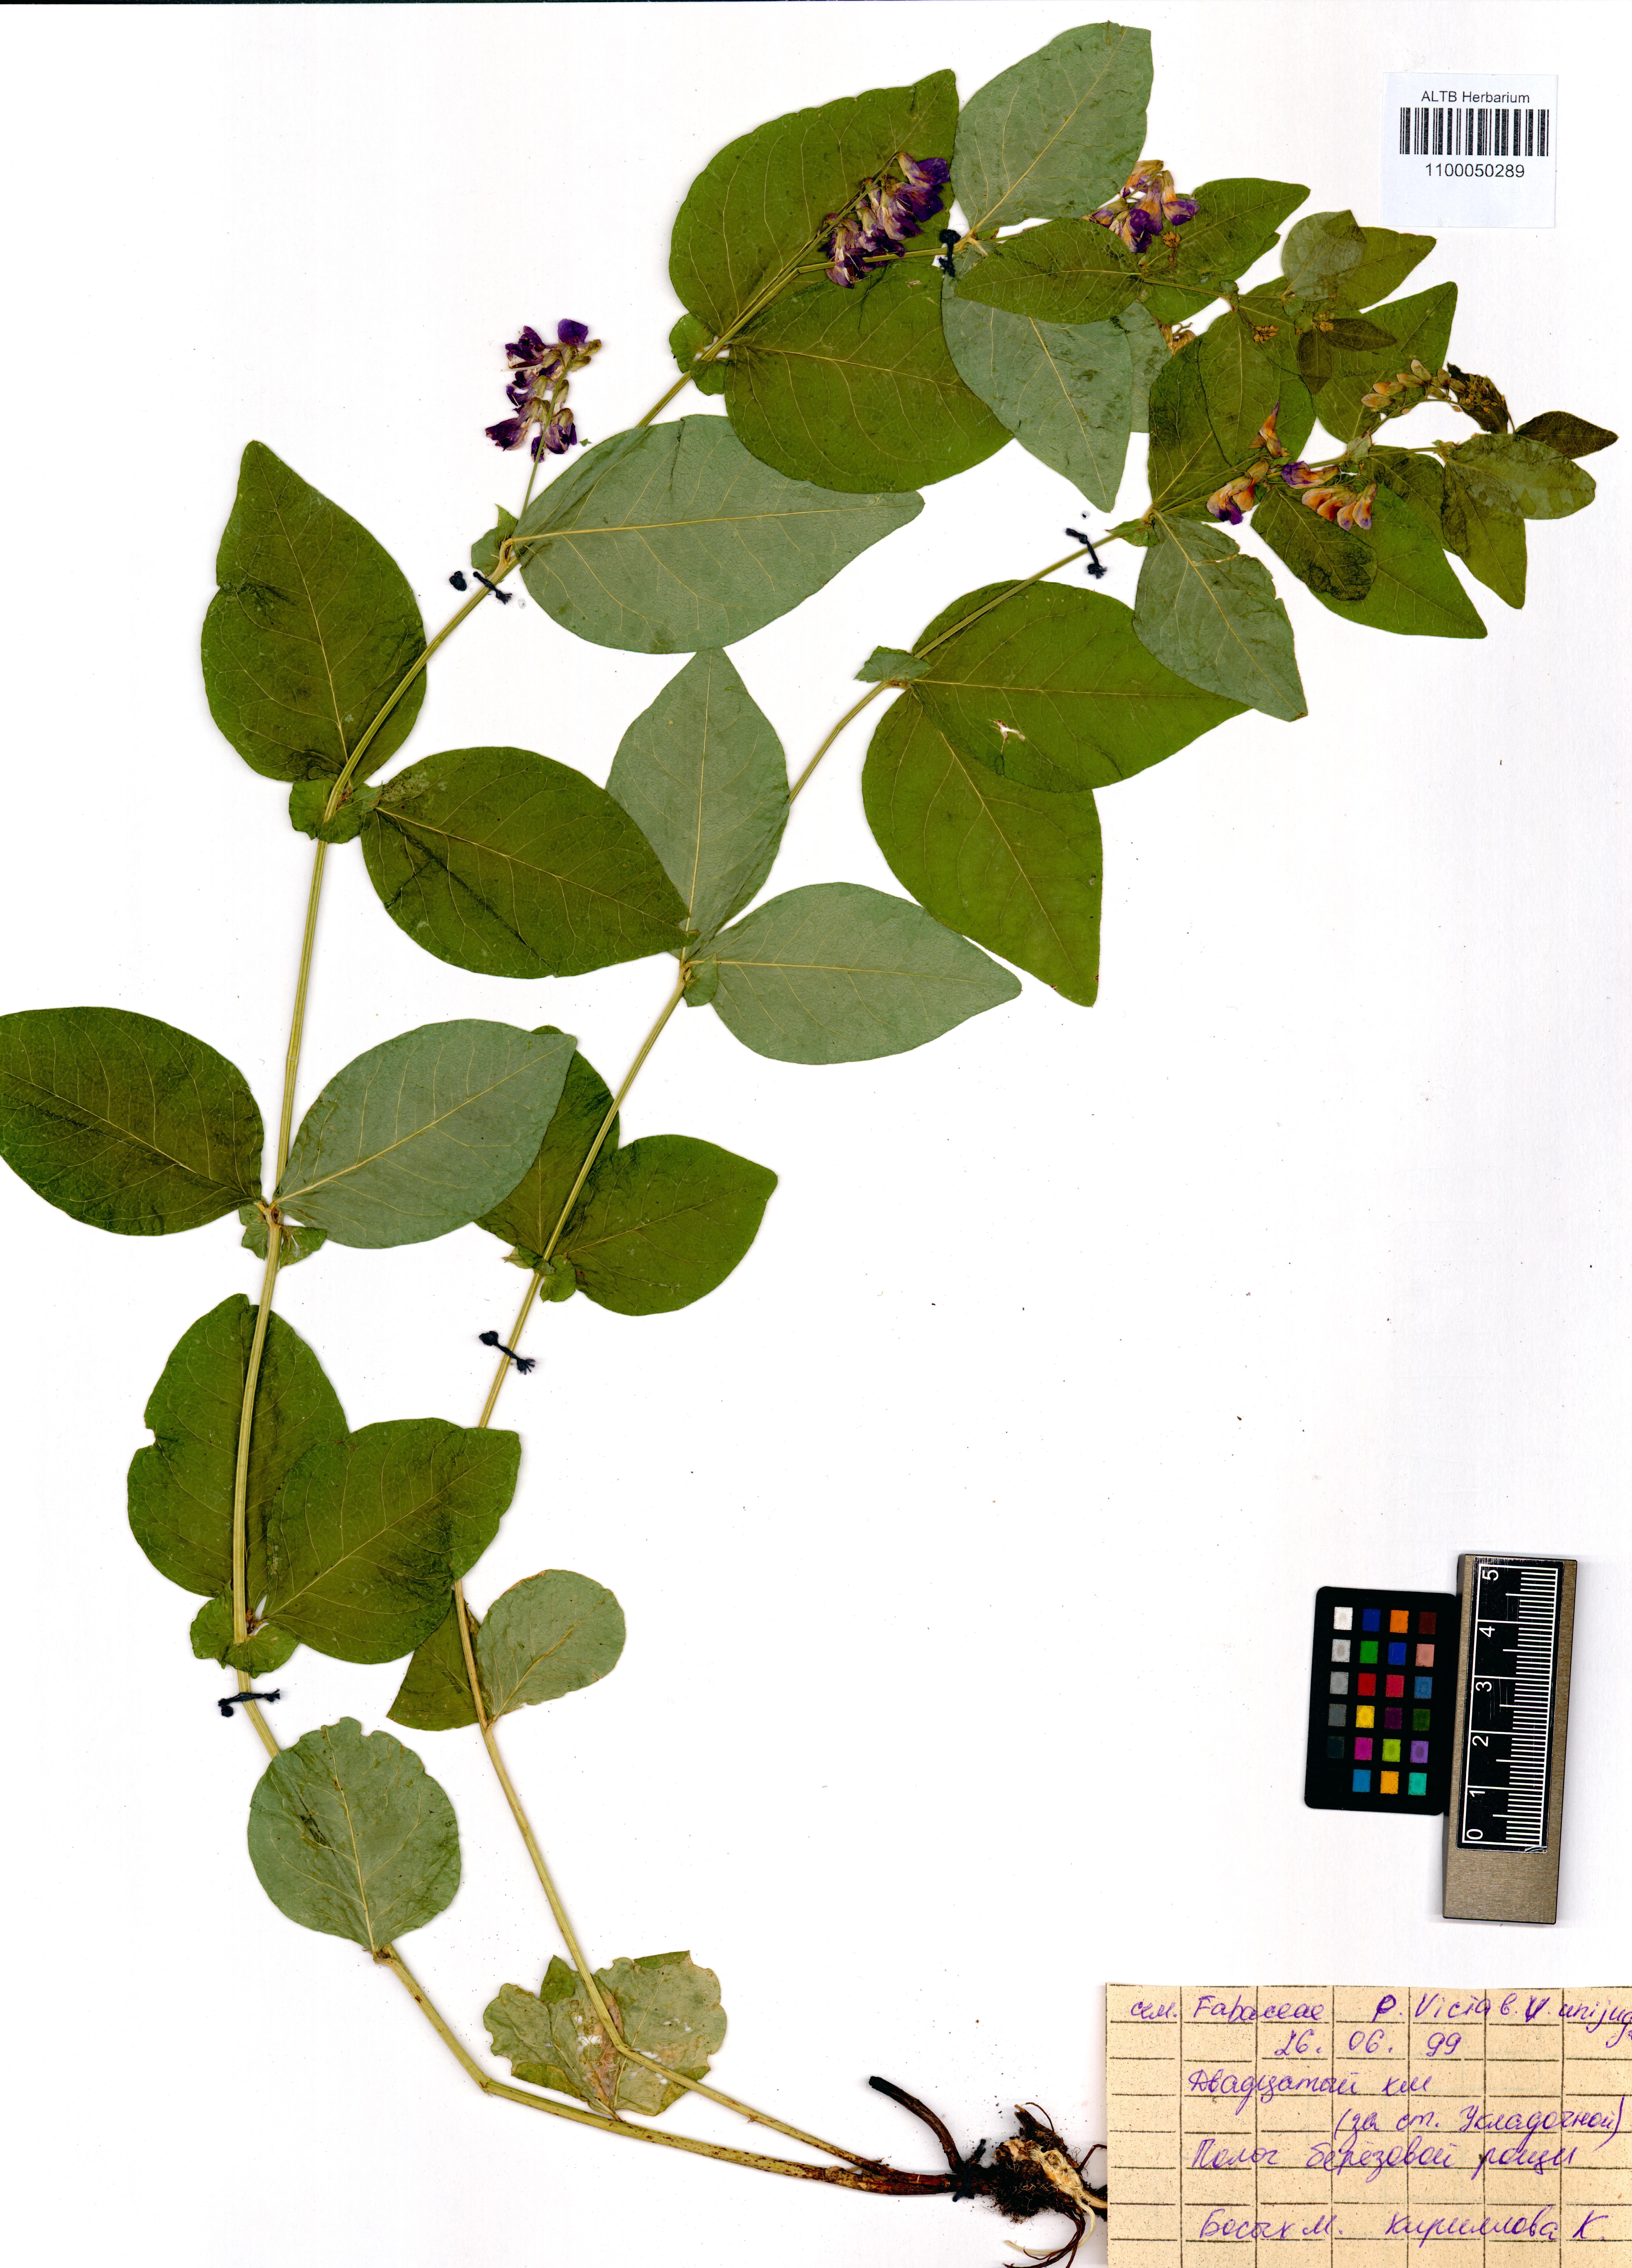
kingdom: Plantae
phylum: Tracheophyta
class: Magnoliopsida
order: Fabales
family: Fabaceae
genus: Vicia
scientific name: Vicia unijuga
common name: Two-leaf vetch
